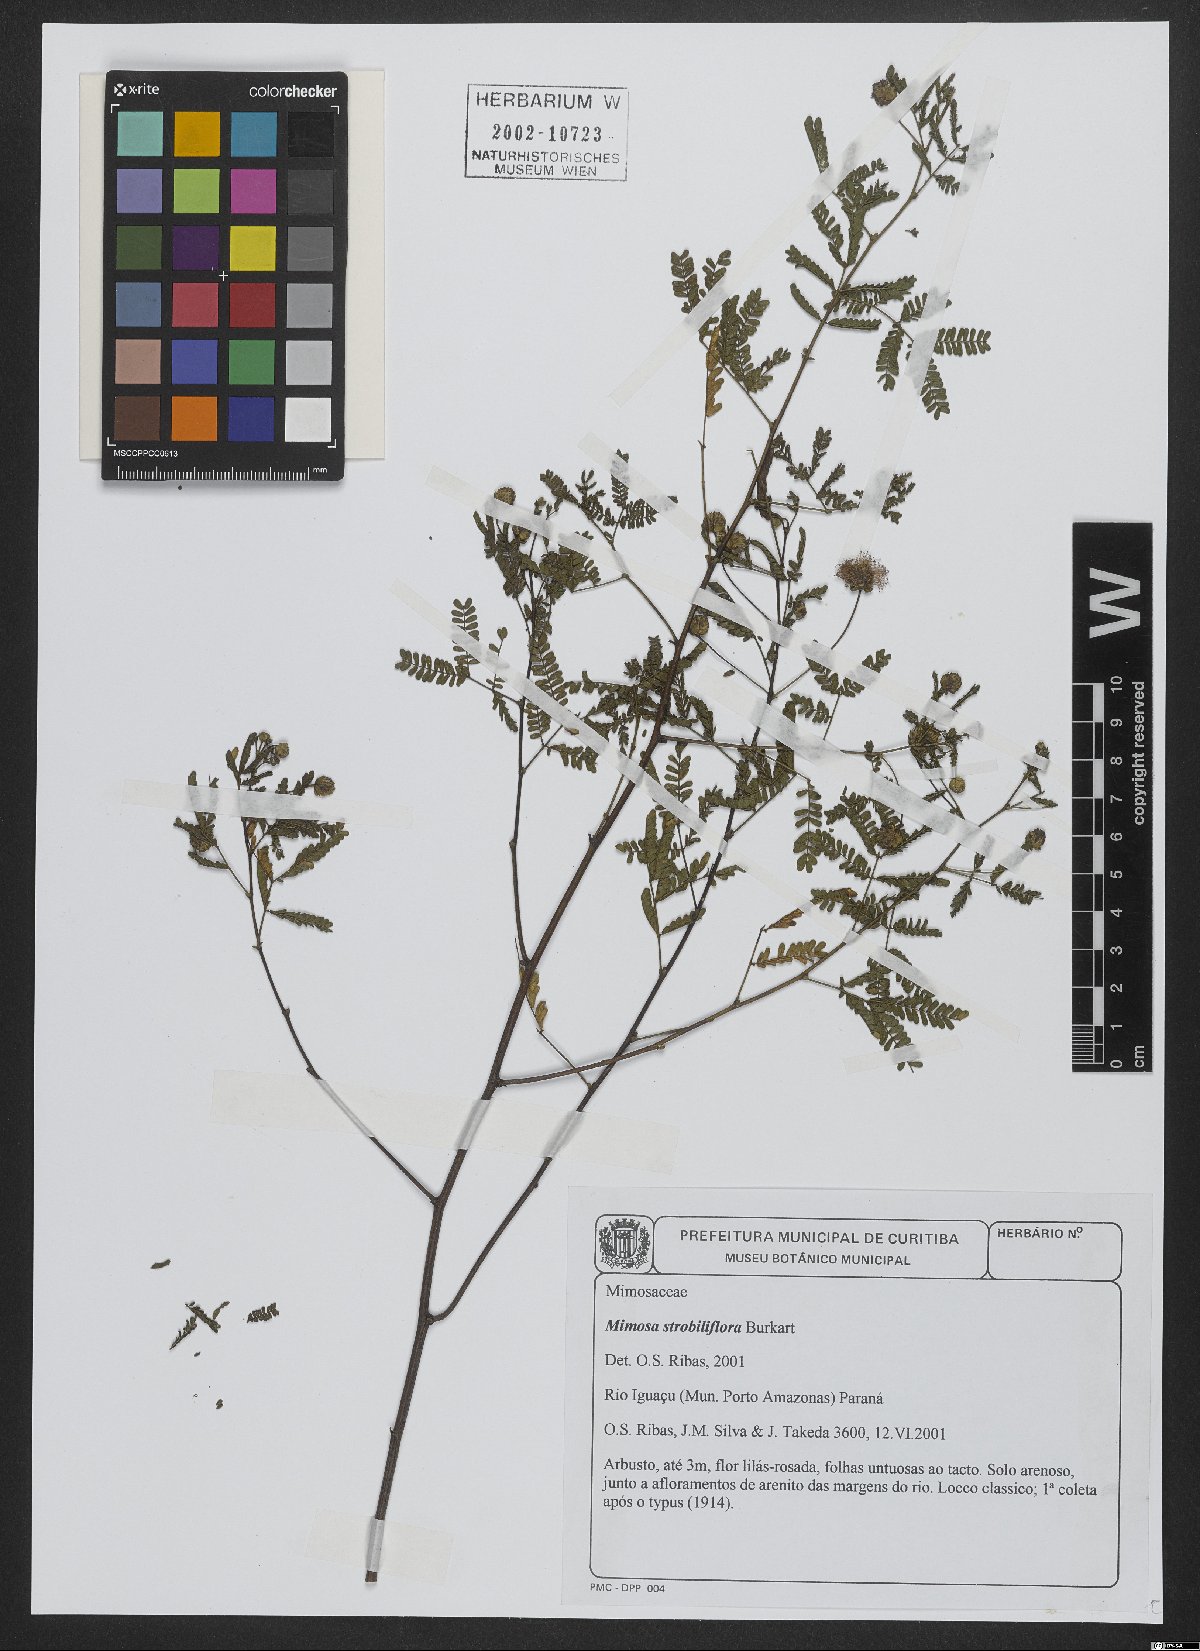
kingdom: Plantae
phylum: Tracheophyta
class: Magnoliopsida
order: Fabales
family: Fabaceae
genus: Mimosa
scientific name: Mimosa strobiliflora
